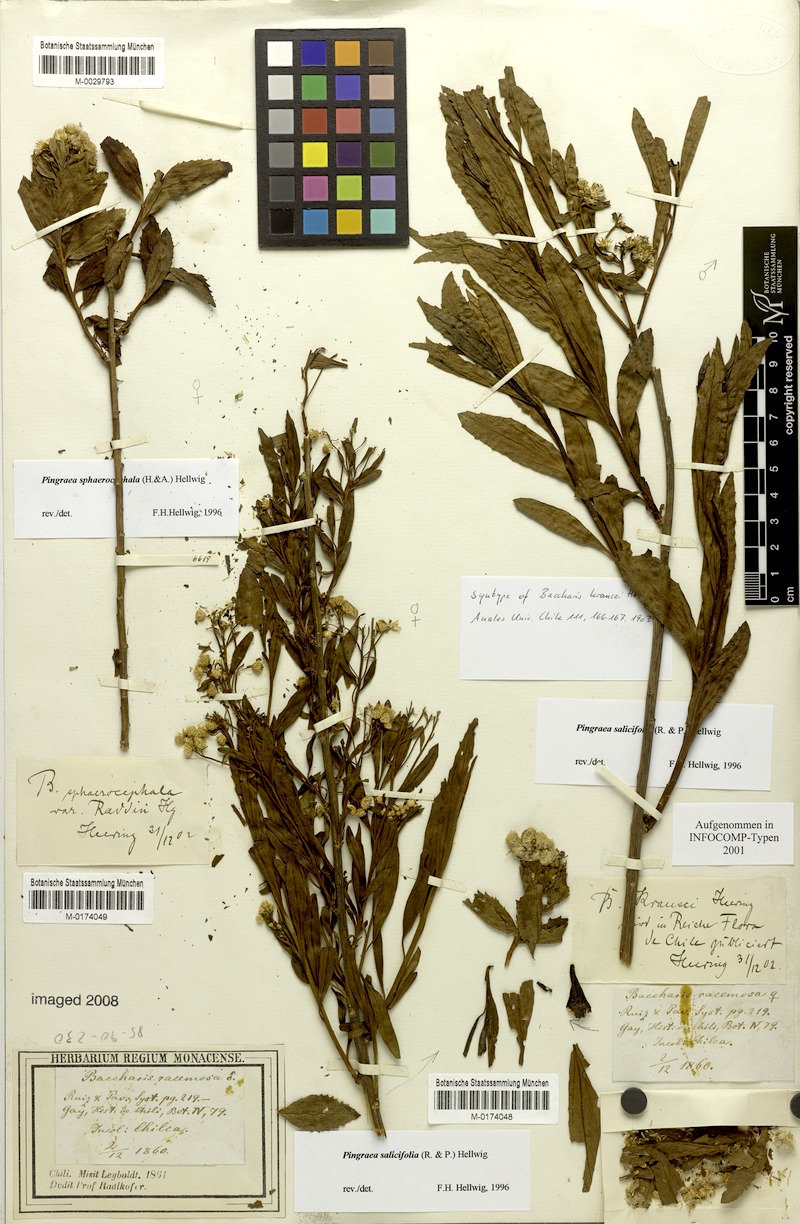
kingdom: Plantae
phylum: Tracheophyta
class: Magnoliopsida
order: Asterales
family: Asteraceae
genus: Baccharis
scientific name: Baccharis salicifolia
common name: Sticky baccharis
